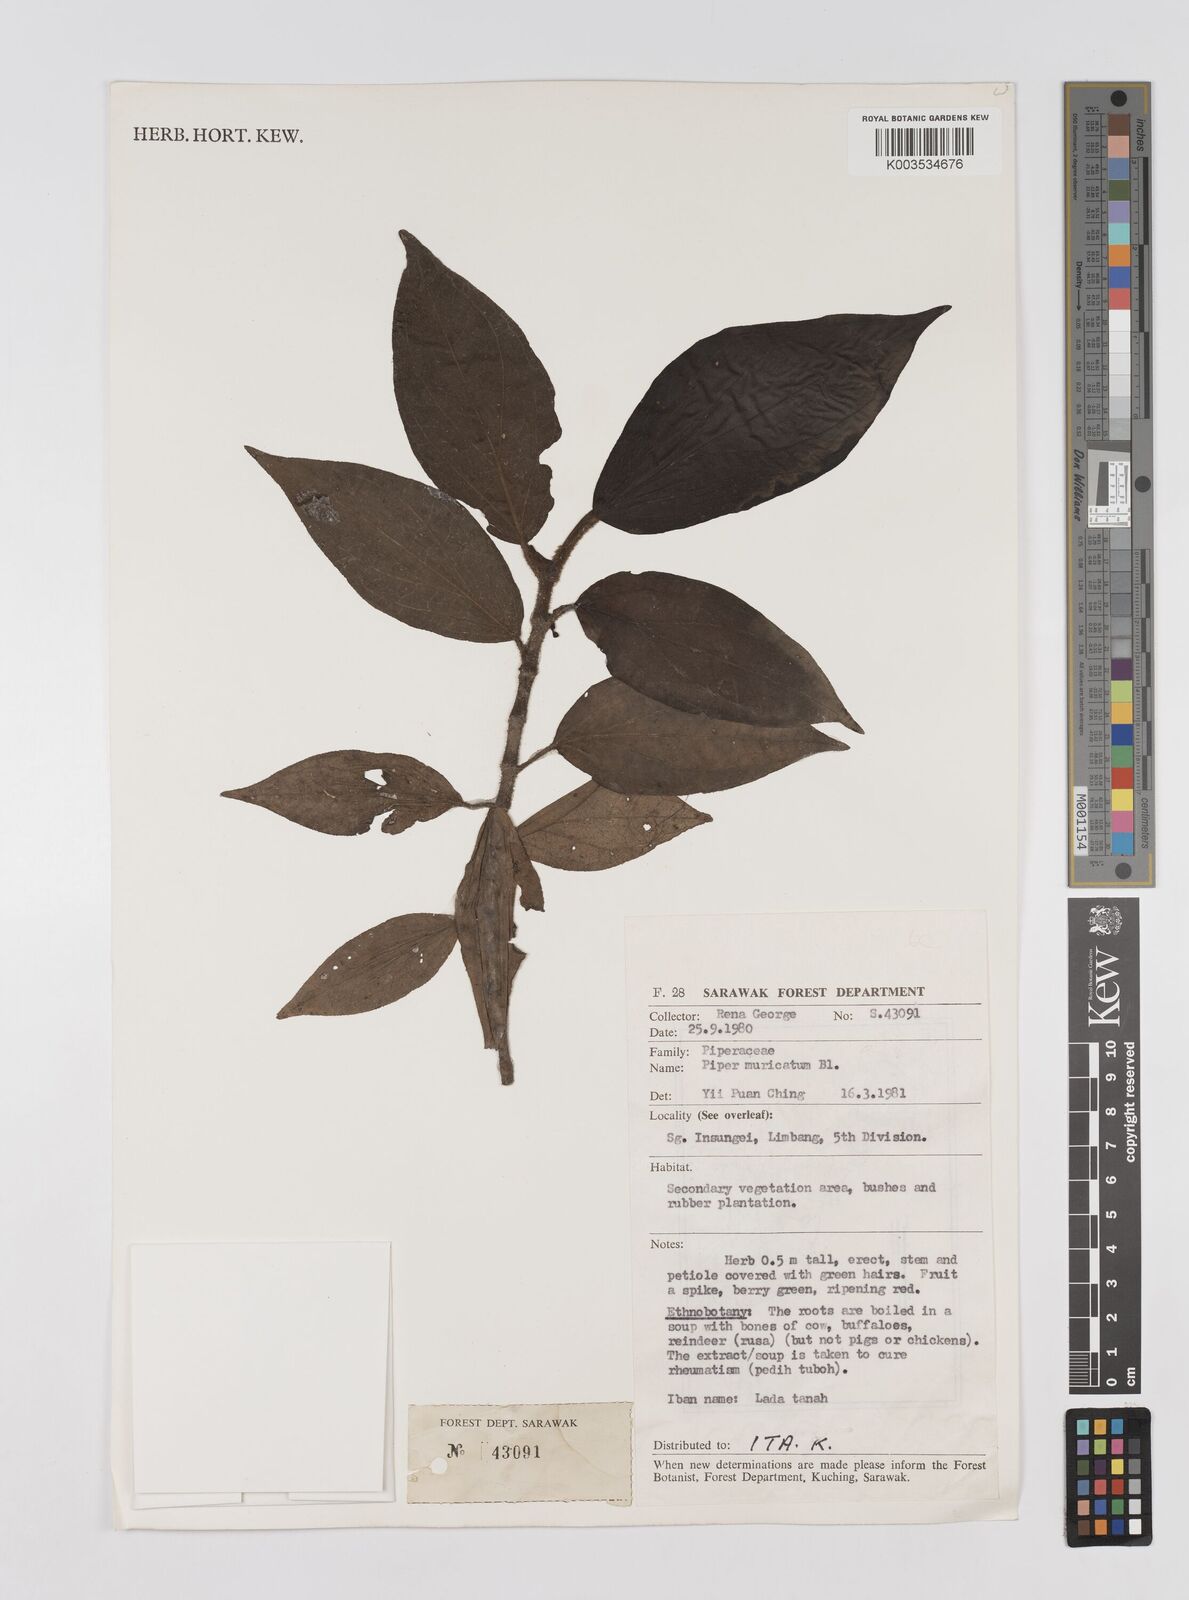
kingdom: Plantae
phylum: Tracheophyta
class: Magnoliopsida
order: Piperales
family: Piperaceae
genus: Piper
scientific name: Piper muricatum
